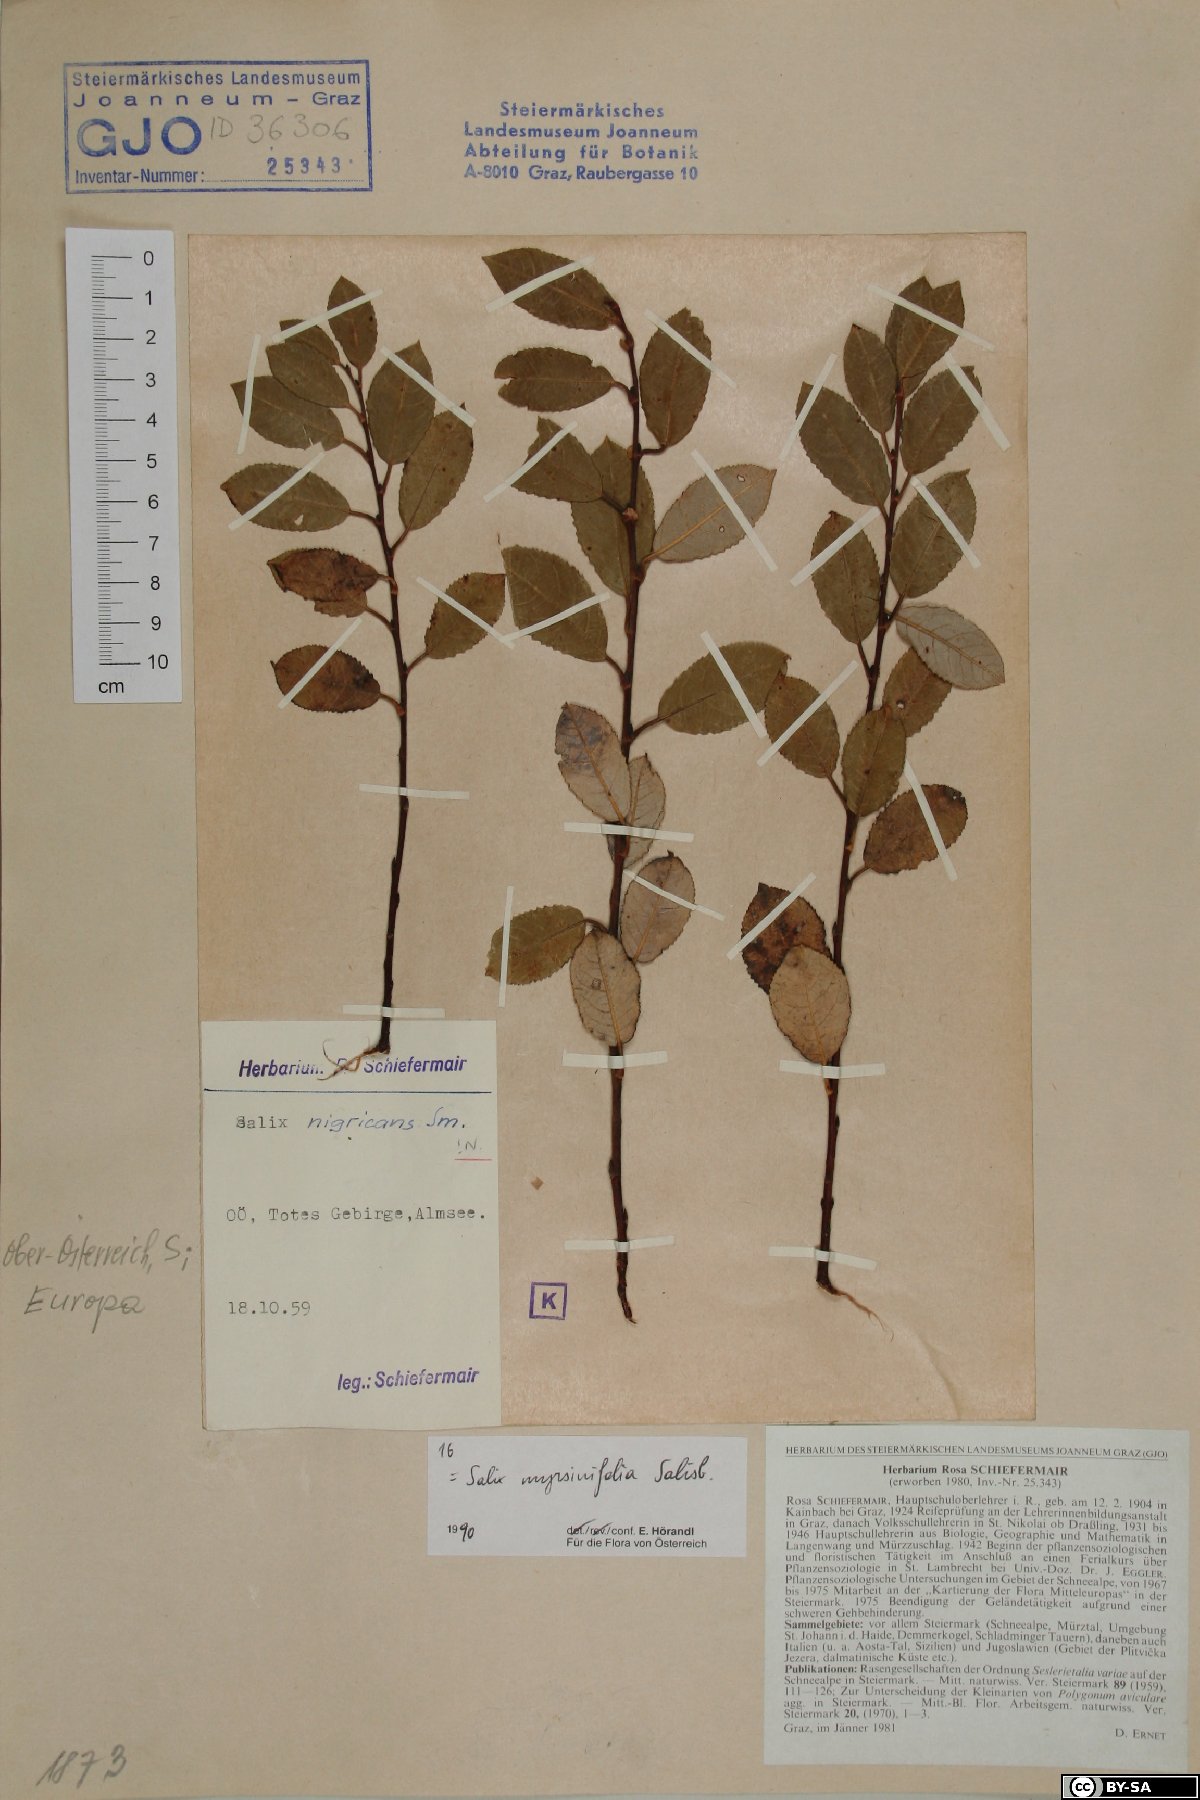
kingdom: Plantae
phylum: Tracheophyta
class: Magnoliopsida
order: Malpighiales
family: Salicaceae
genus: Salix
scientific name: Salix myrsinifolia
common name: Dark-leaved willow
